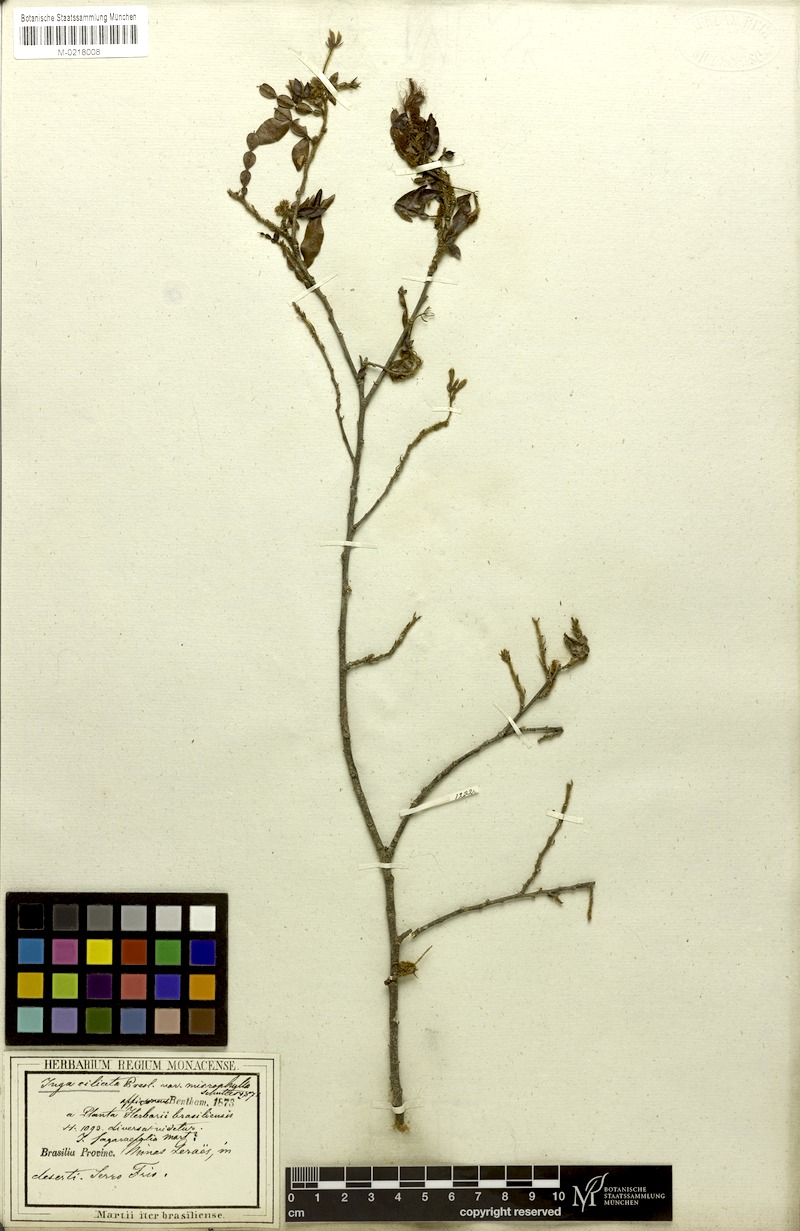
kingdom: Plantae
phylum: Tracheophyta
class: Magnoliopsida
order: Fabales
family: Fabaceae
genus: Inga
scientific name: Inga ciliata
